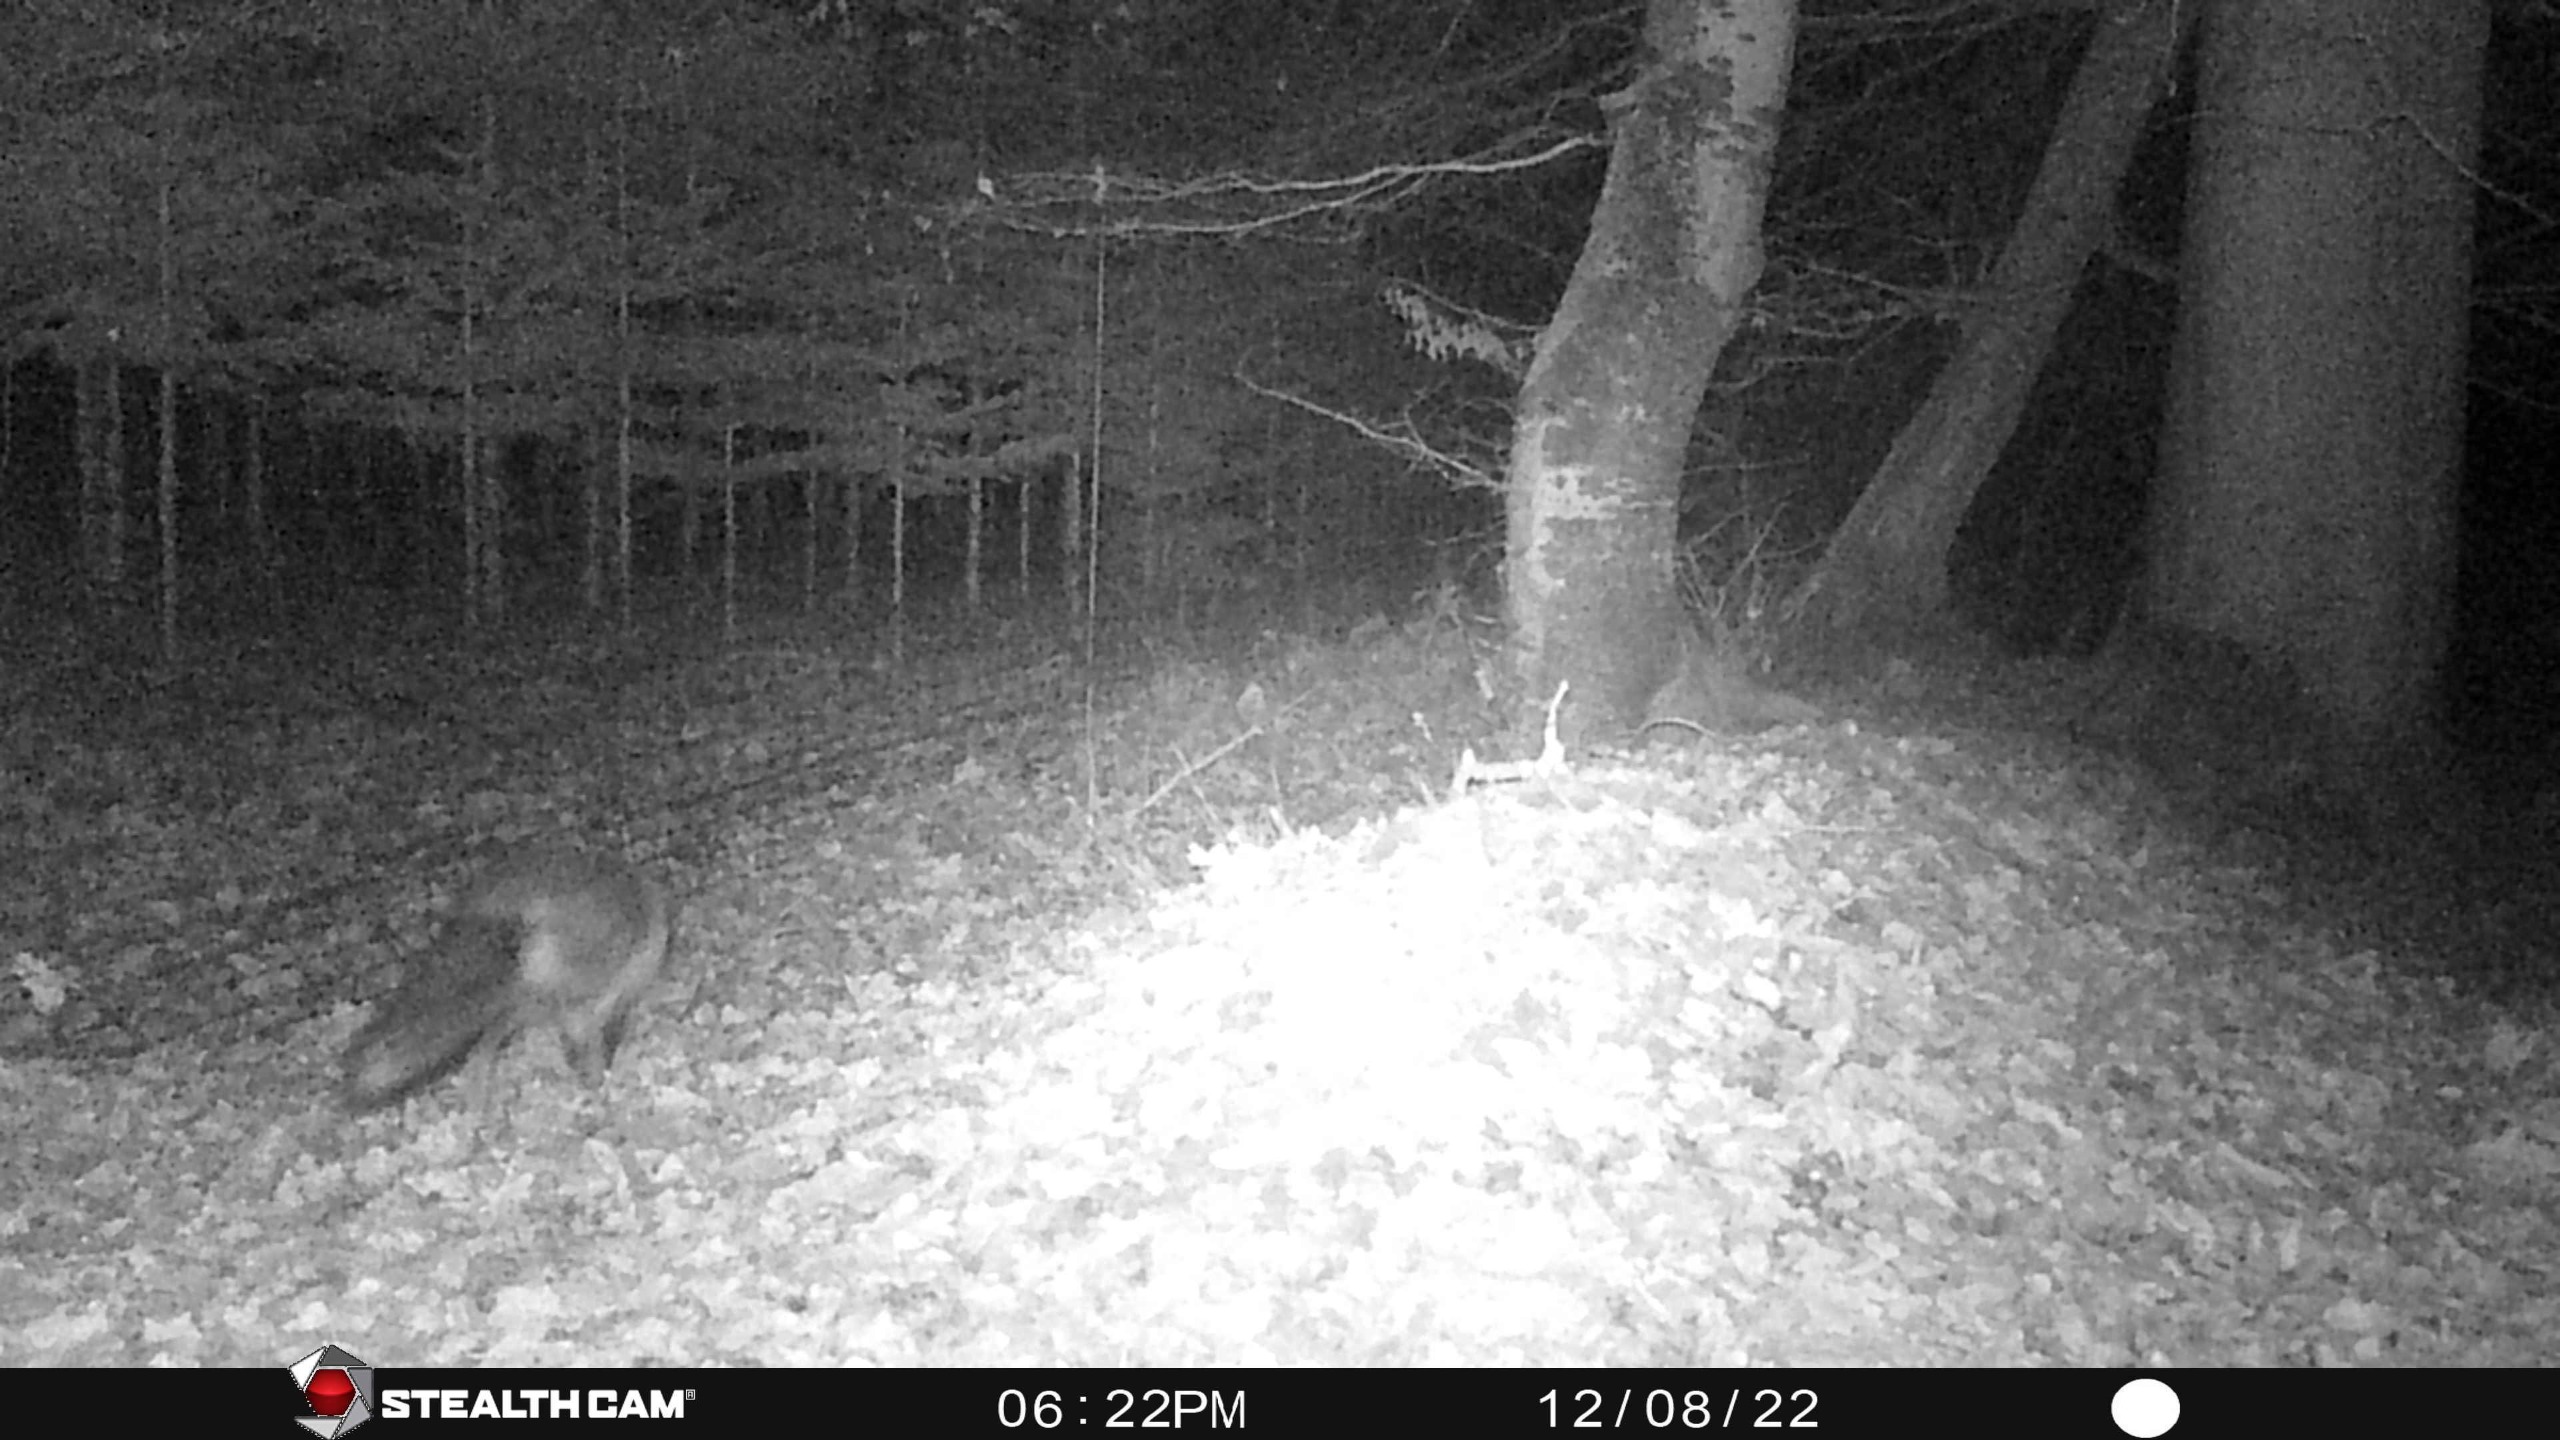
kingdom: Animalia
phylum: Chordata
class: Mammalia
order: Carnivora
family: Canidae
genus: Vulpes
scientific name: Vulpes vulpes
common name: Ræv
